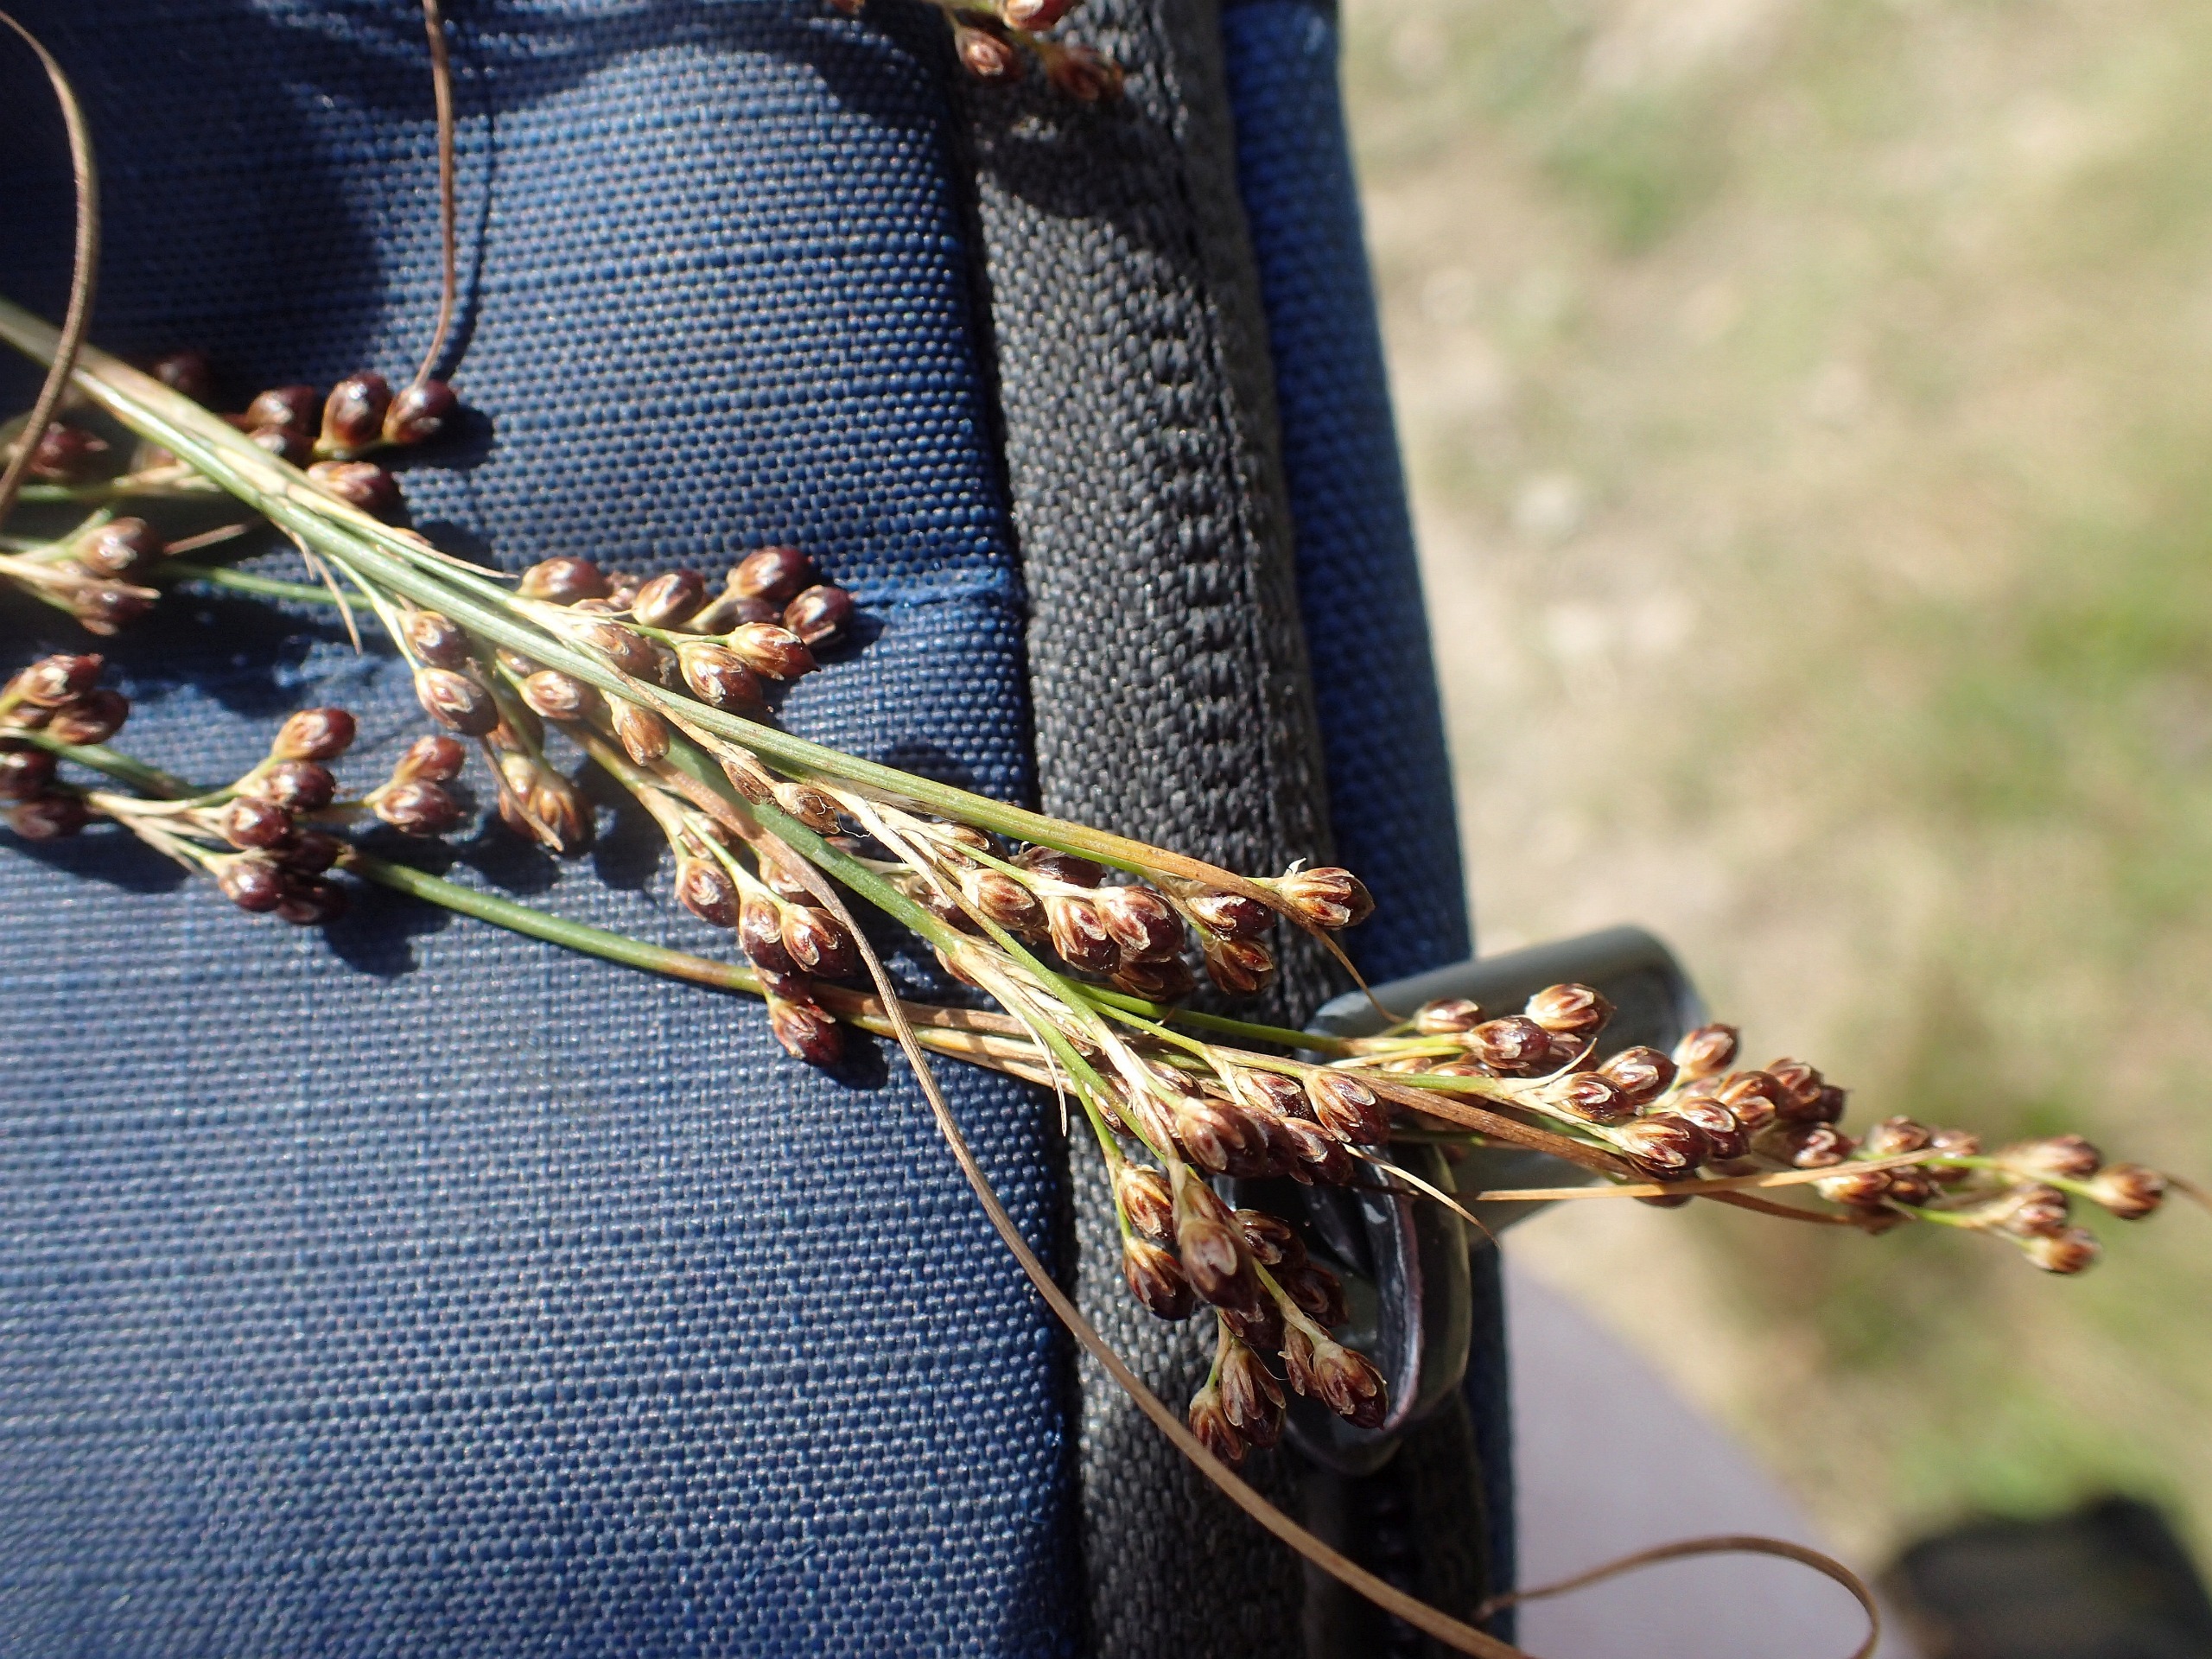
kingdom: Plantae
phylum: Tracheophyta
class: Liliopsida
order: Poales
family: Juncaceae
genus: Juncus
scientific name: Juncus compressus
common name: Fladstrået siv
